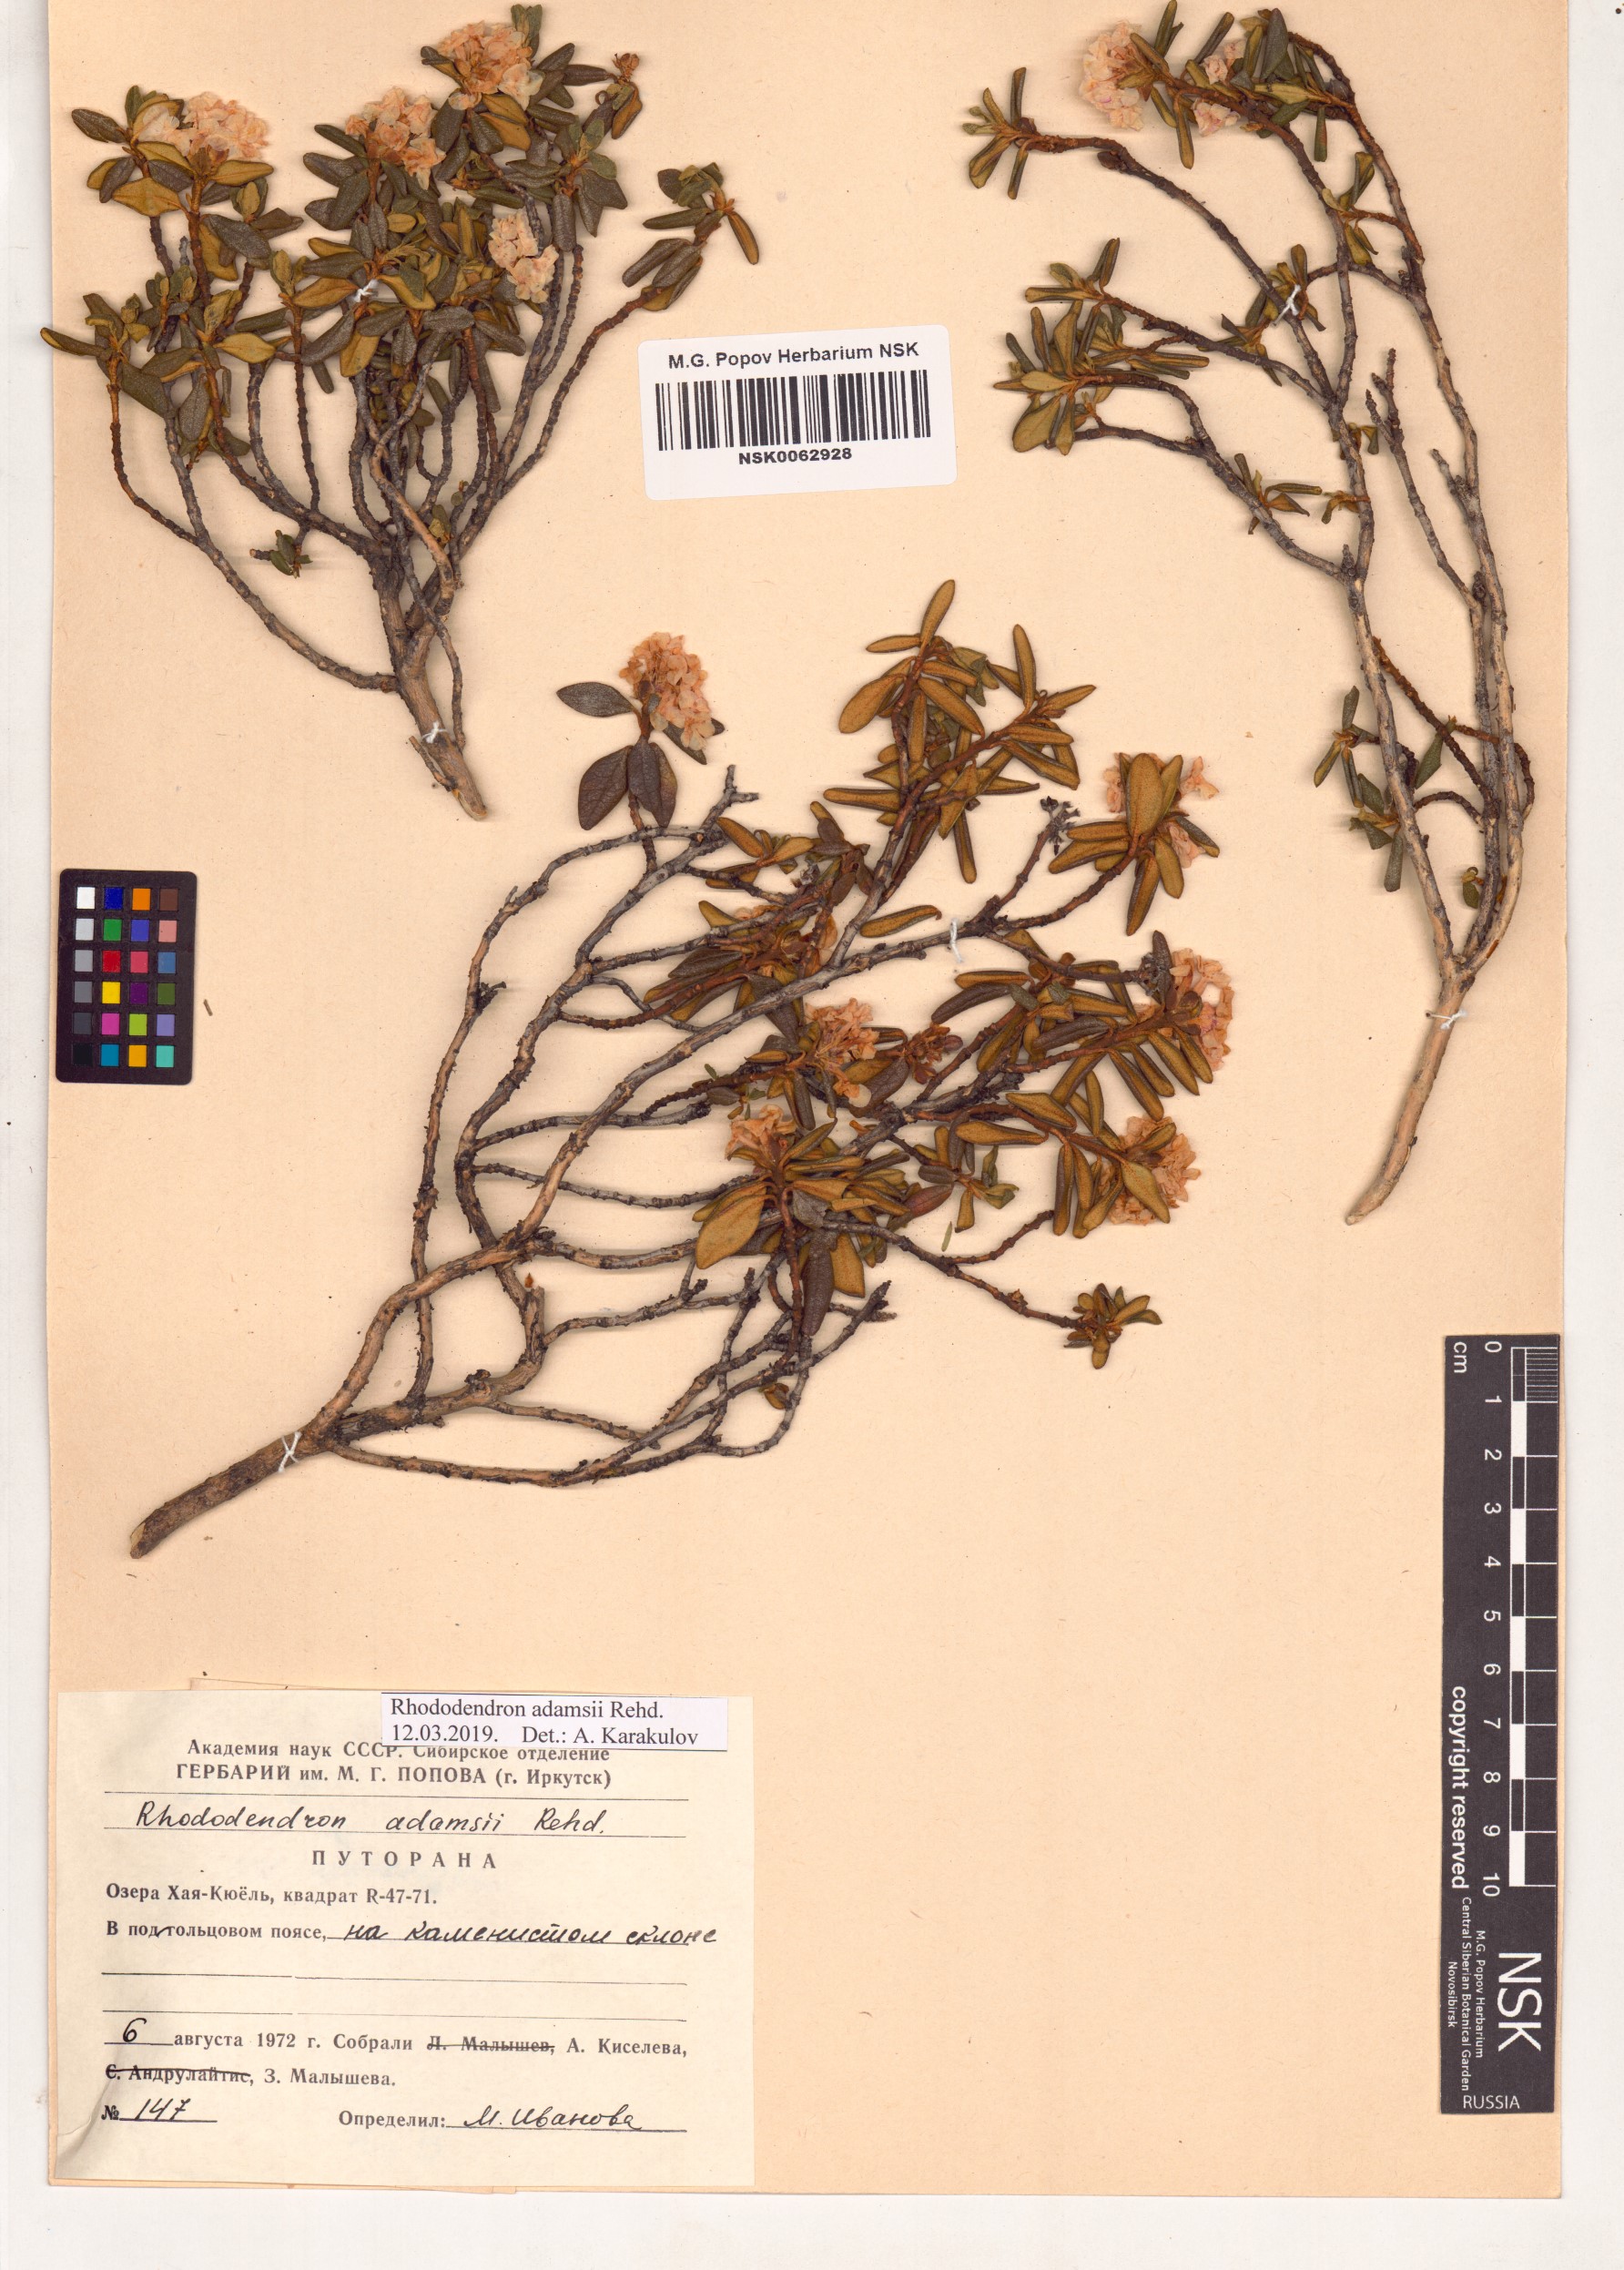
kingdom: Plantae
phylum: Tracheophyta
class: Magnoliopsida
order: Ericales
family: Ericaceae
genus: Rhododendron
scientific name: Rhododendron adamsii
